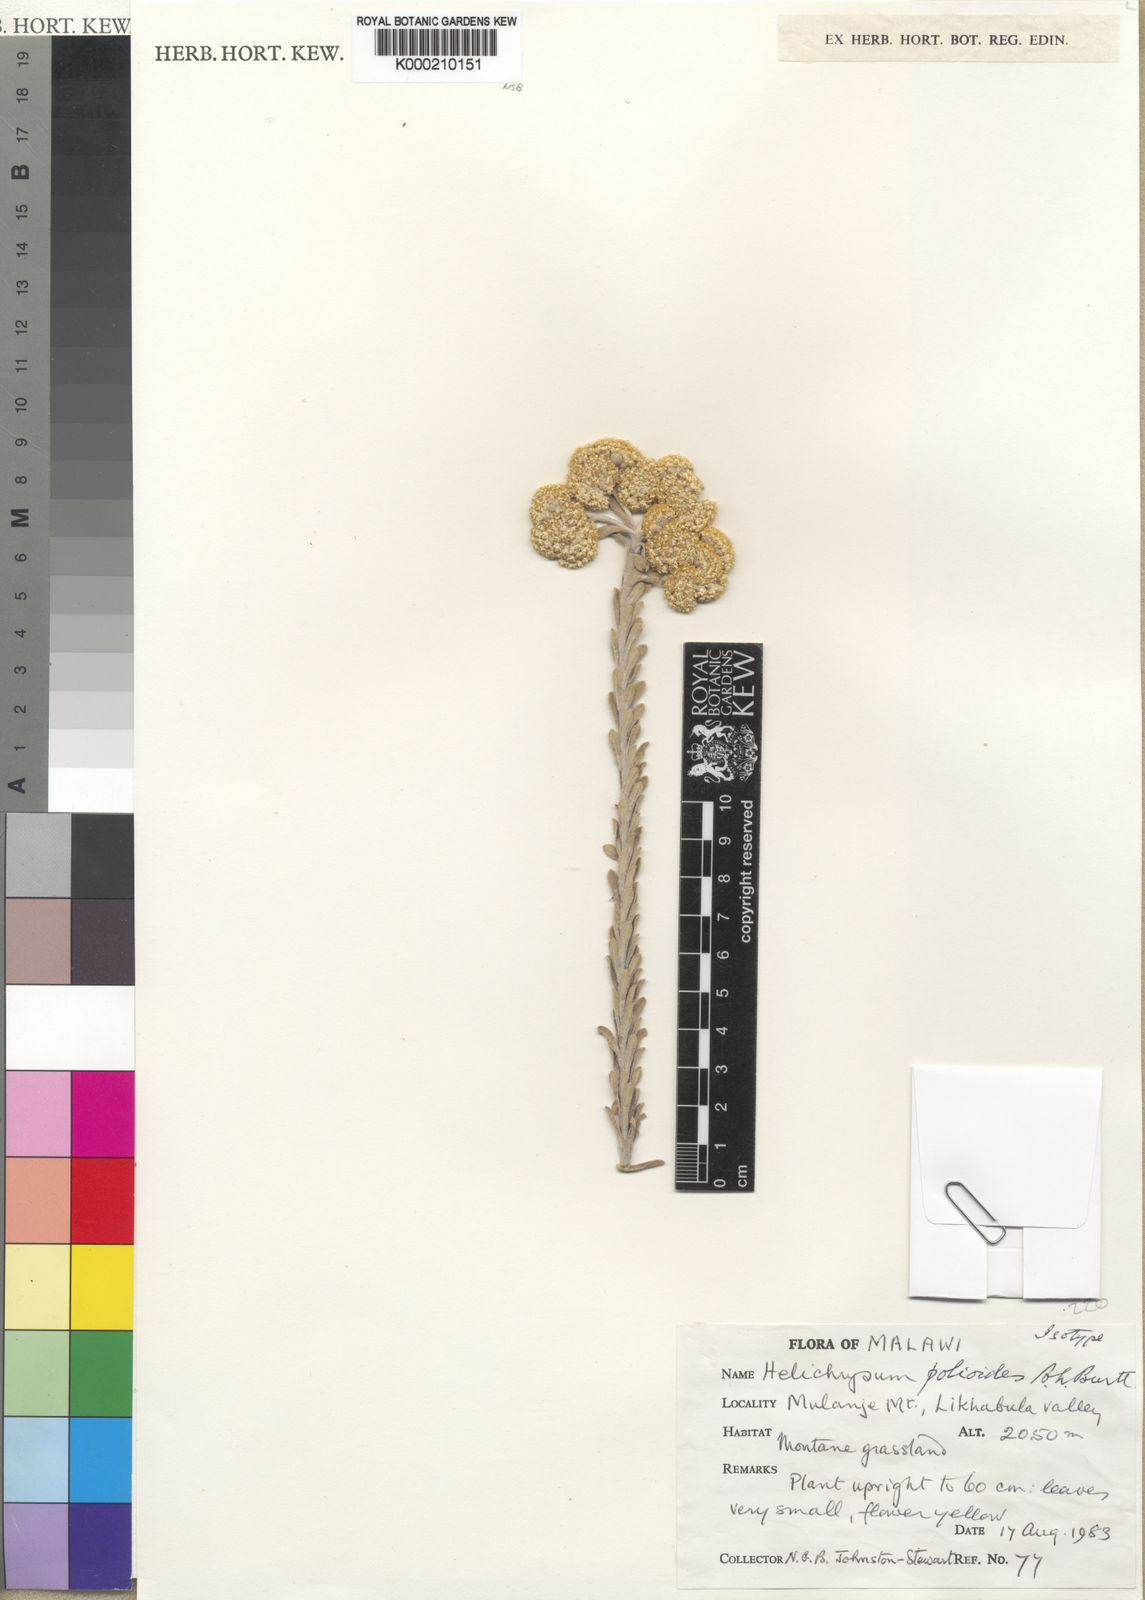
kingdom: Plantae
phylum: Tracheophyta
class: Magnoliopsida
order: Asterales
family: Asteraceae
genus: Helichrysum
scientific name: Helichrysum polioides
